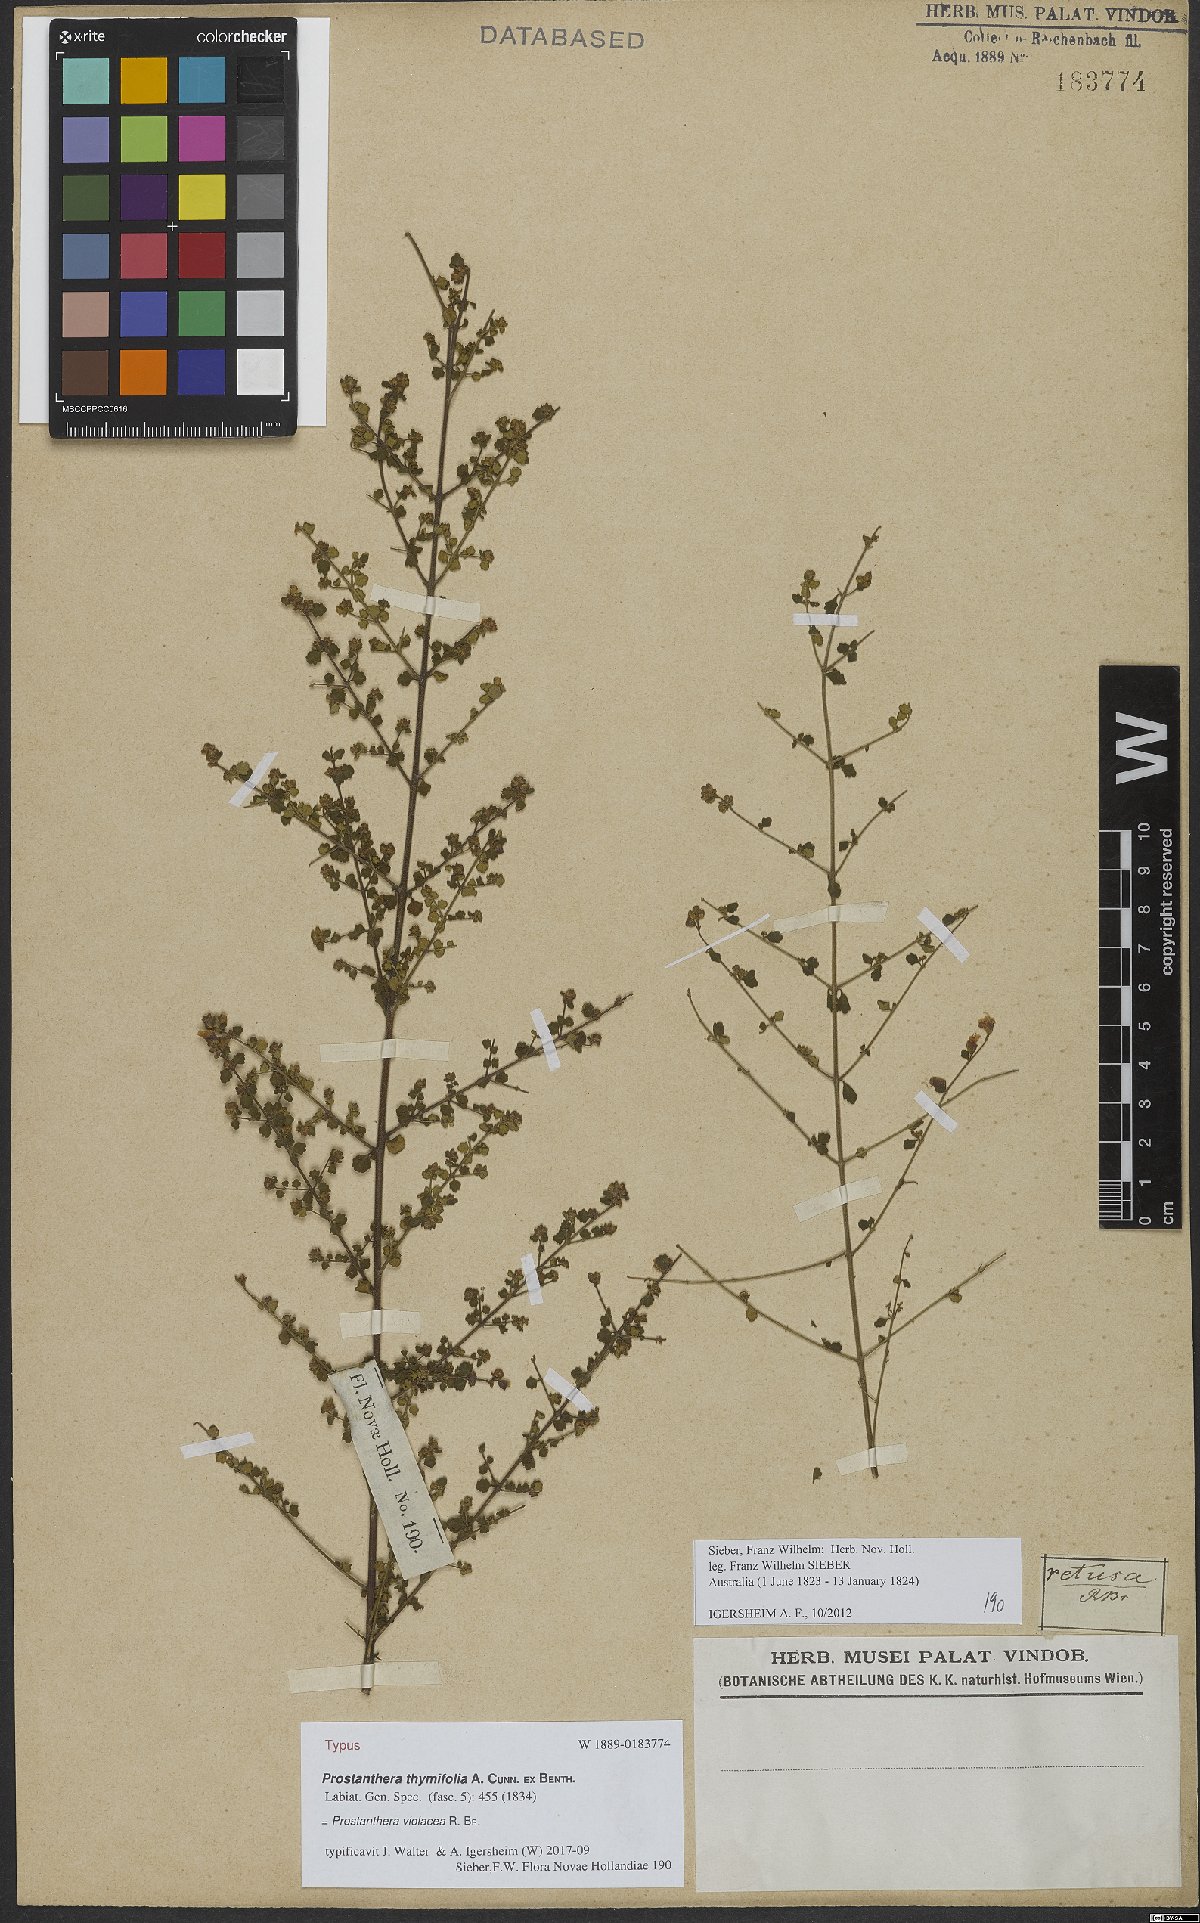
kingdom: Plantae
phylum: Tracheophyta
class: Magnoliopsida
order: Lamiales
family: Lamiaceae
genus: Prostanthera
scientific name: Prostanthera violacea
